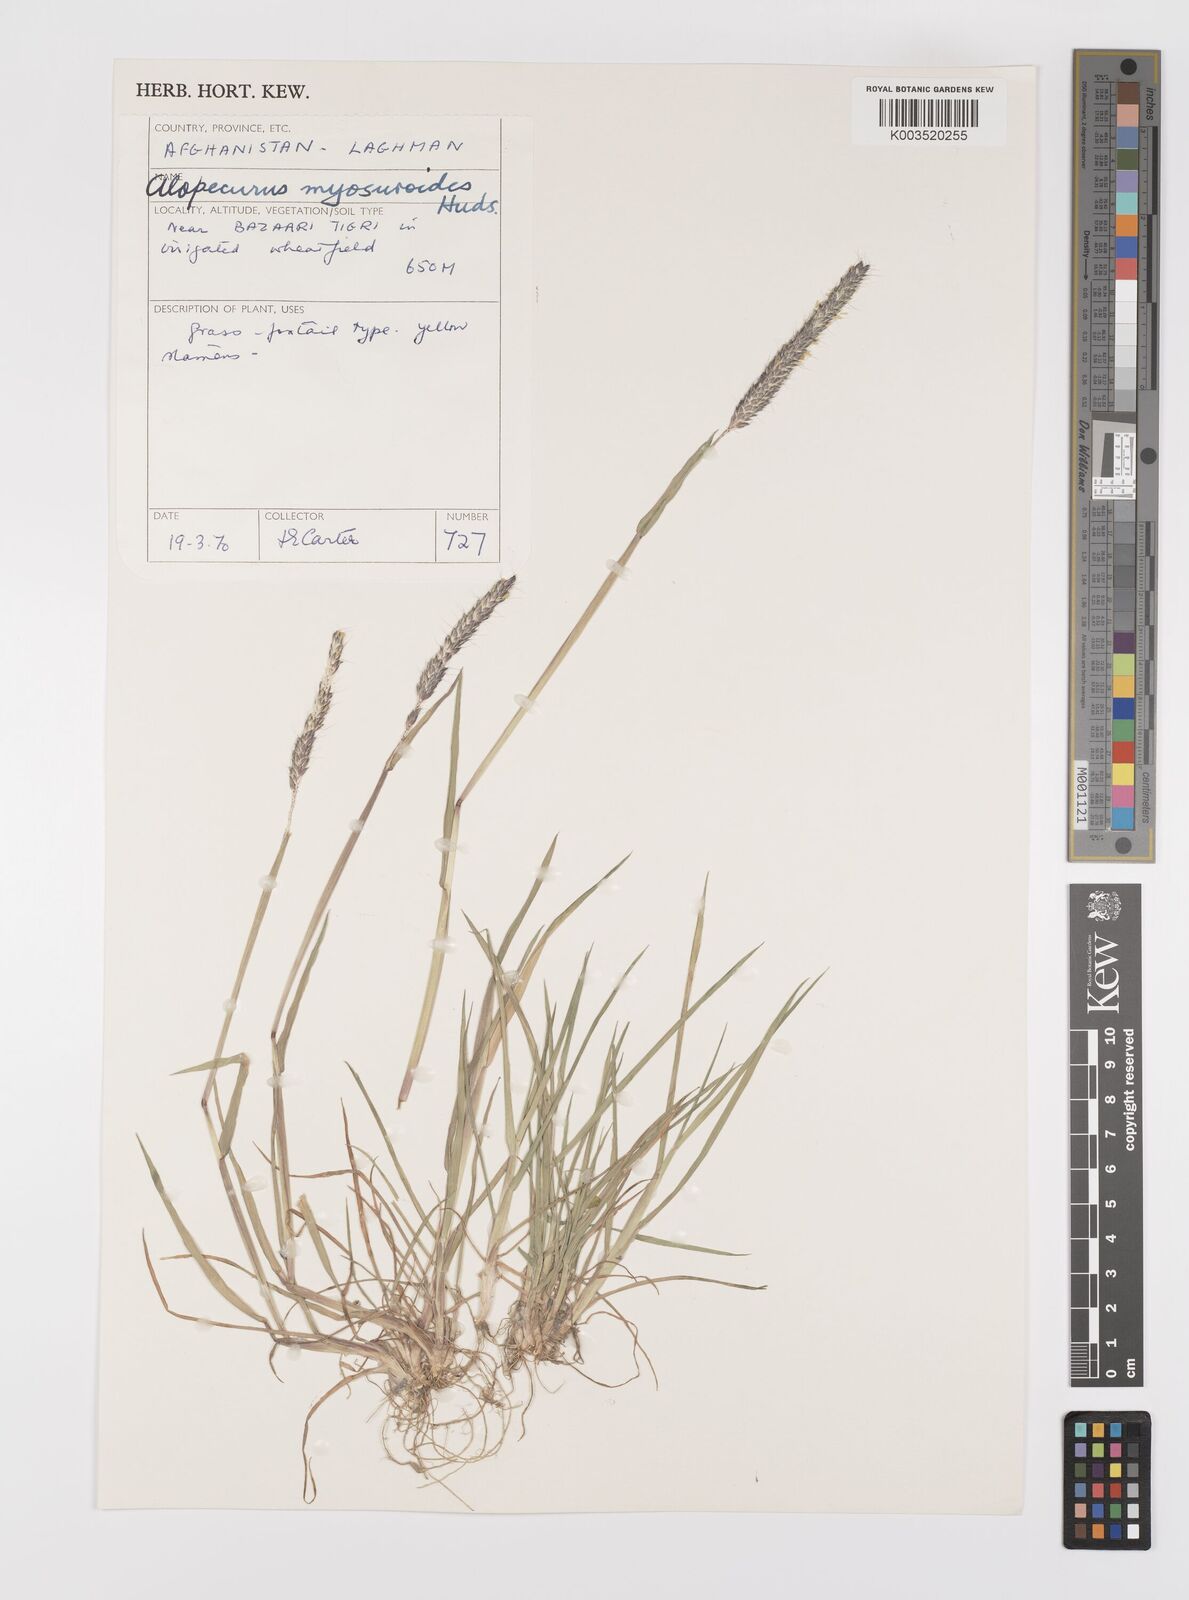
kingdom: Plantae
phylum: Tracheophyta
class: Liliopsida
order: Poales
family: Poaceae
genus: Alopecurus
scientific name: Alopecurus myosuroides
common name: Black-grass
